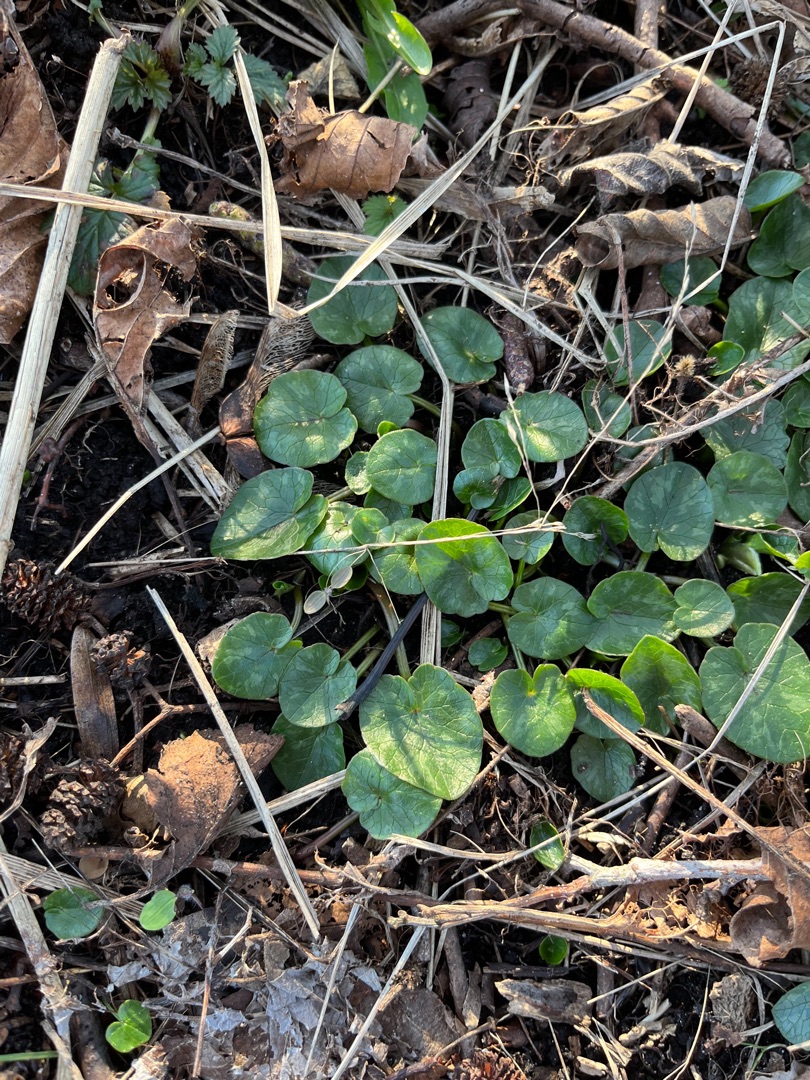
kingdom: Plantae
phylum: Tracheophyta
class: Magnoliopsida
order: Ranunculales
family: Ranunculaceae
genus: Ficaria
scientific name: Ficaria verna
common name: Vorterod
